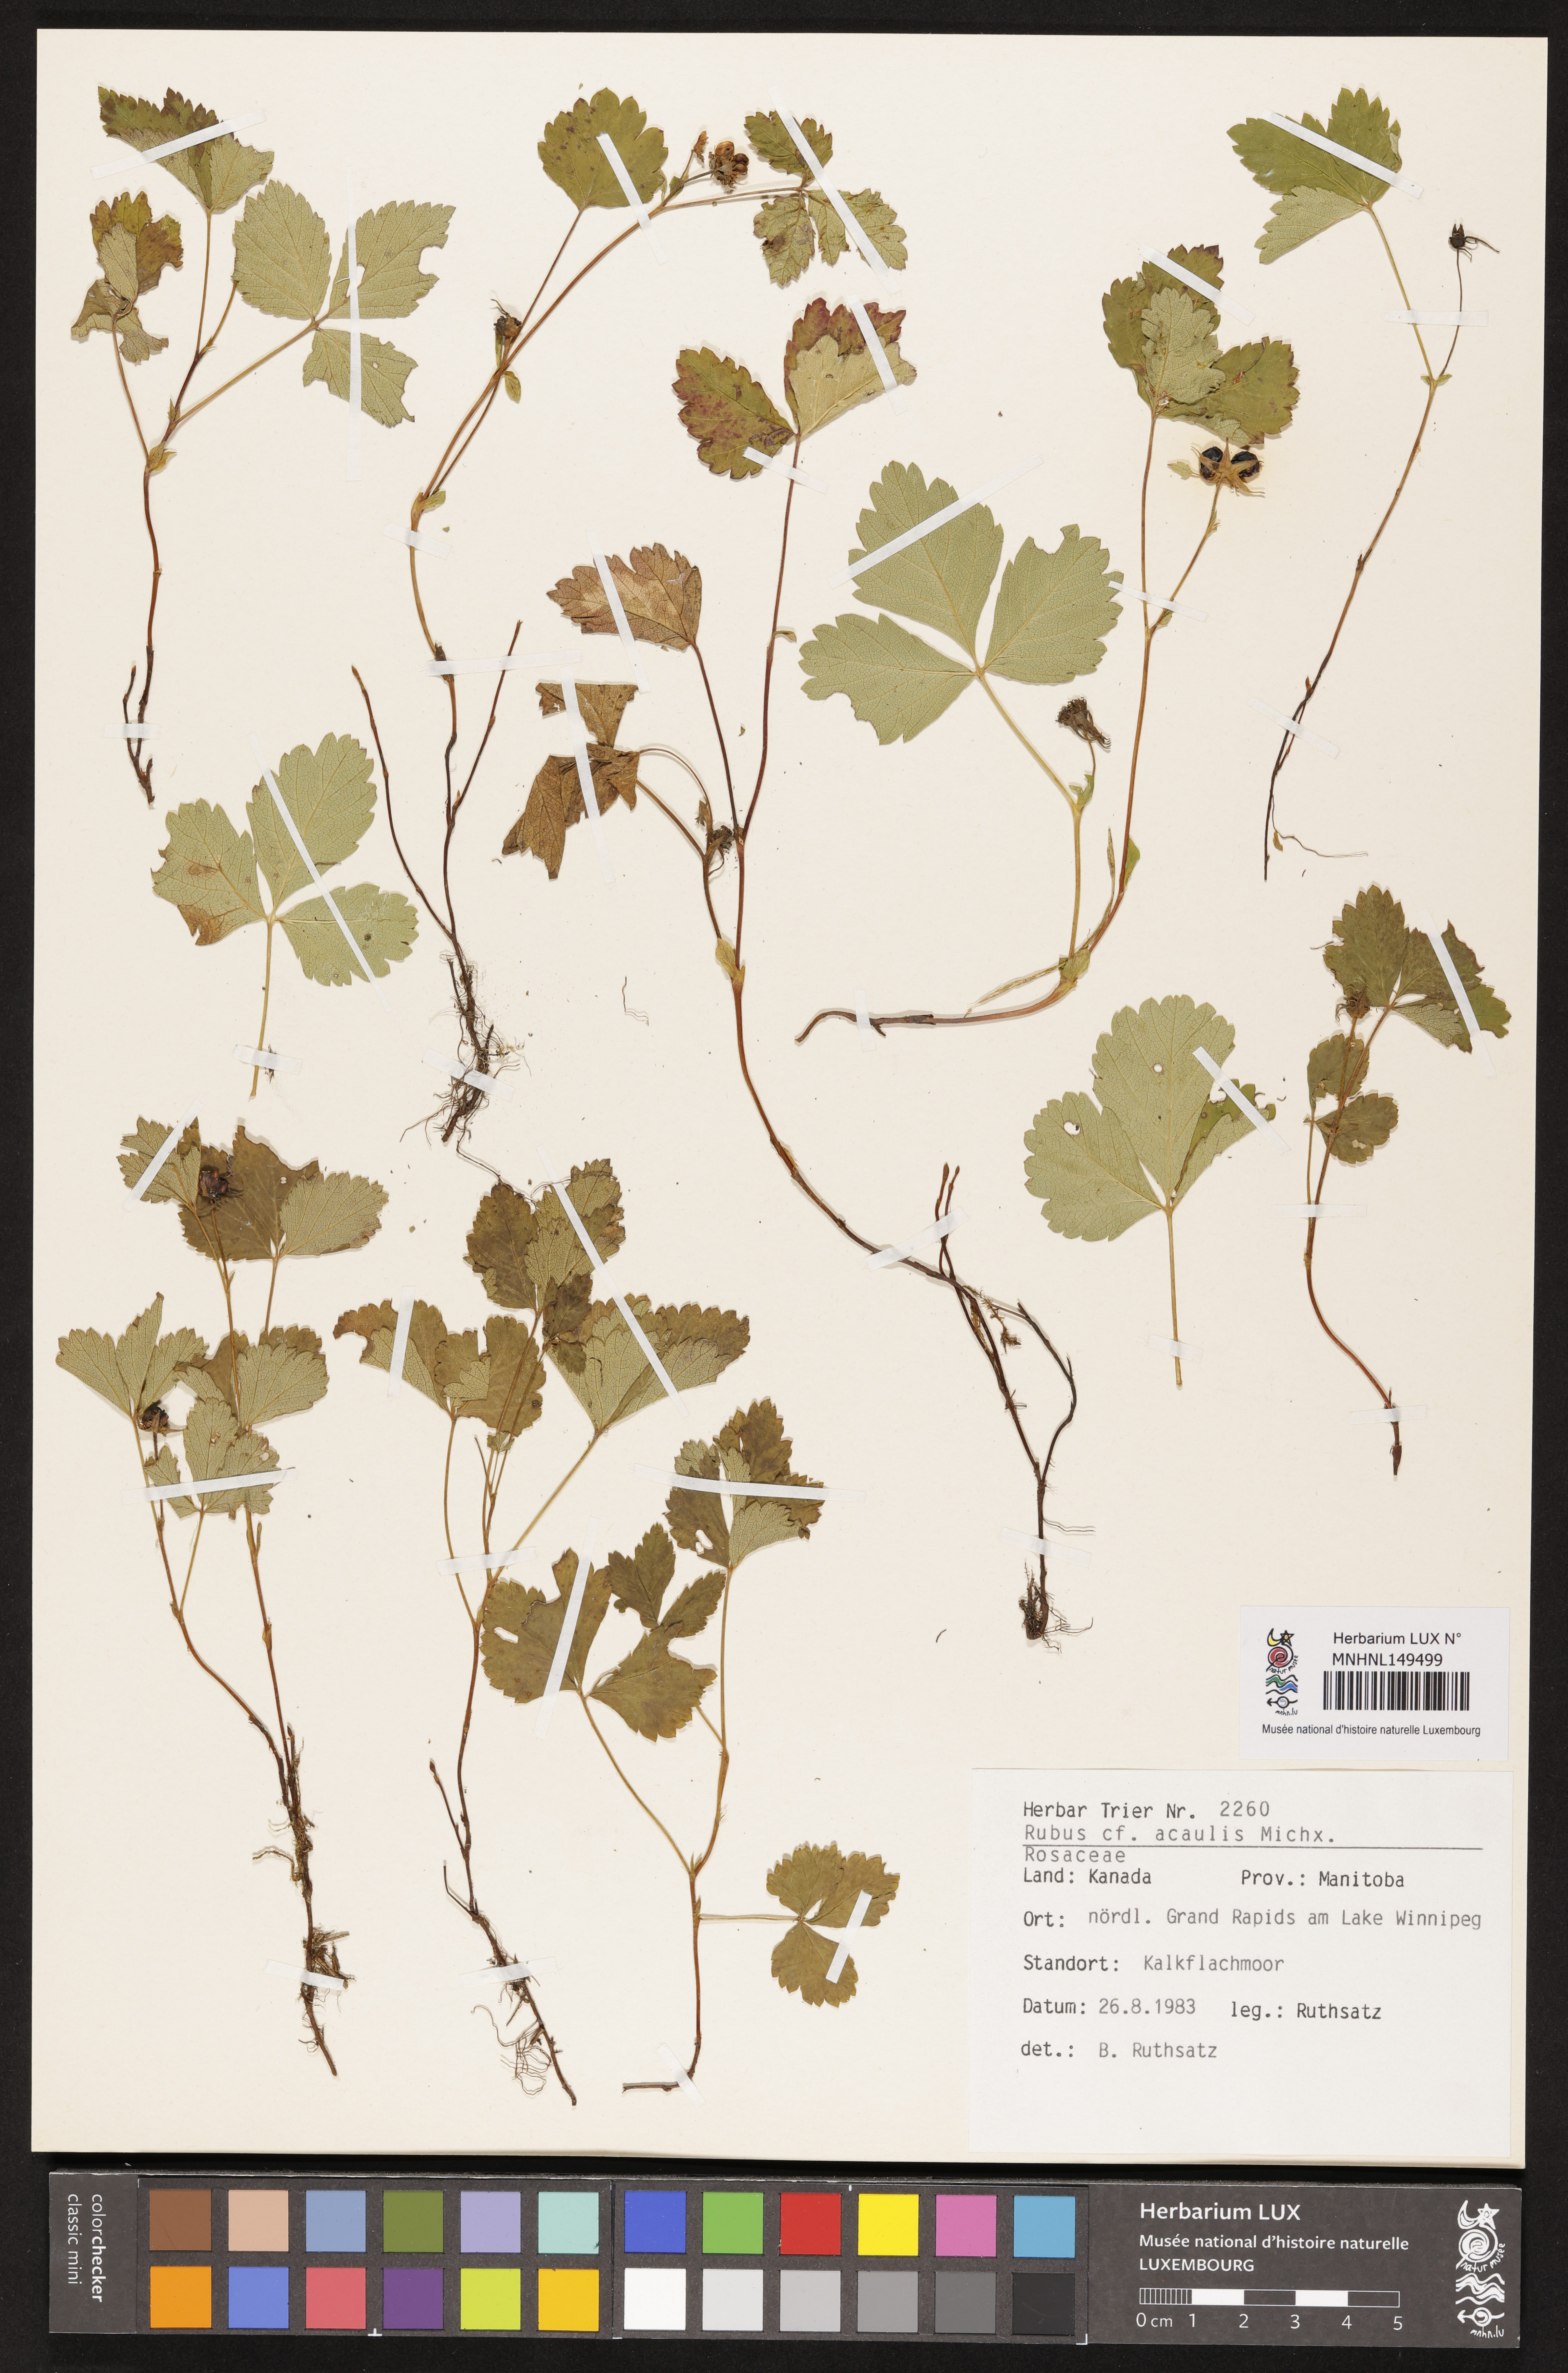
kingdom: Plantae
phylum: Tracheophyta
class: Magnoliopsida
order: Rosales
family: Rosaceae
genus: Rubus
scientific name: Rubus arcticus
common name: Arctic bramble
